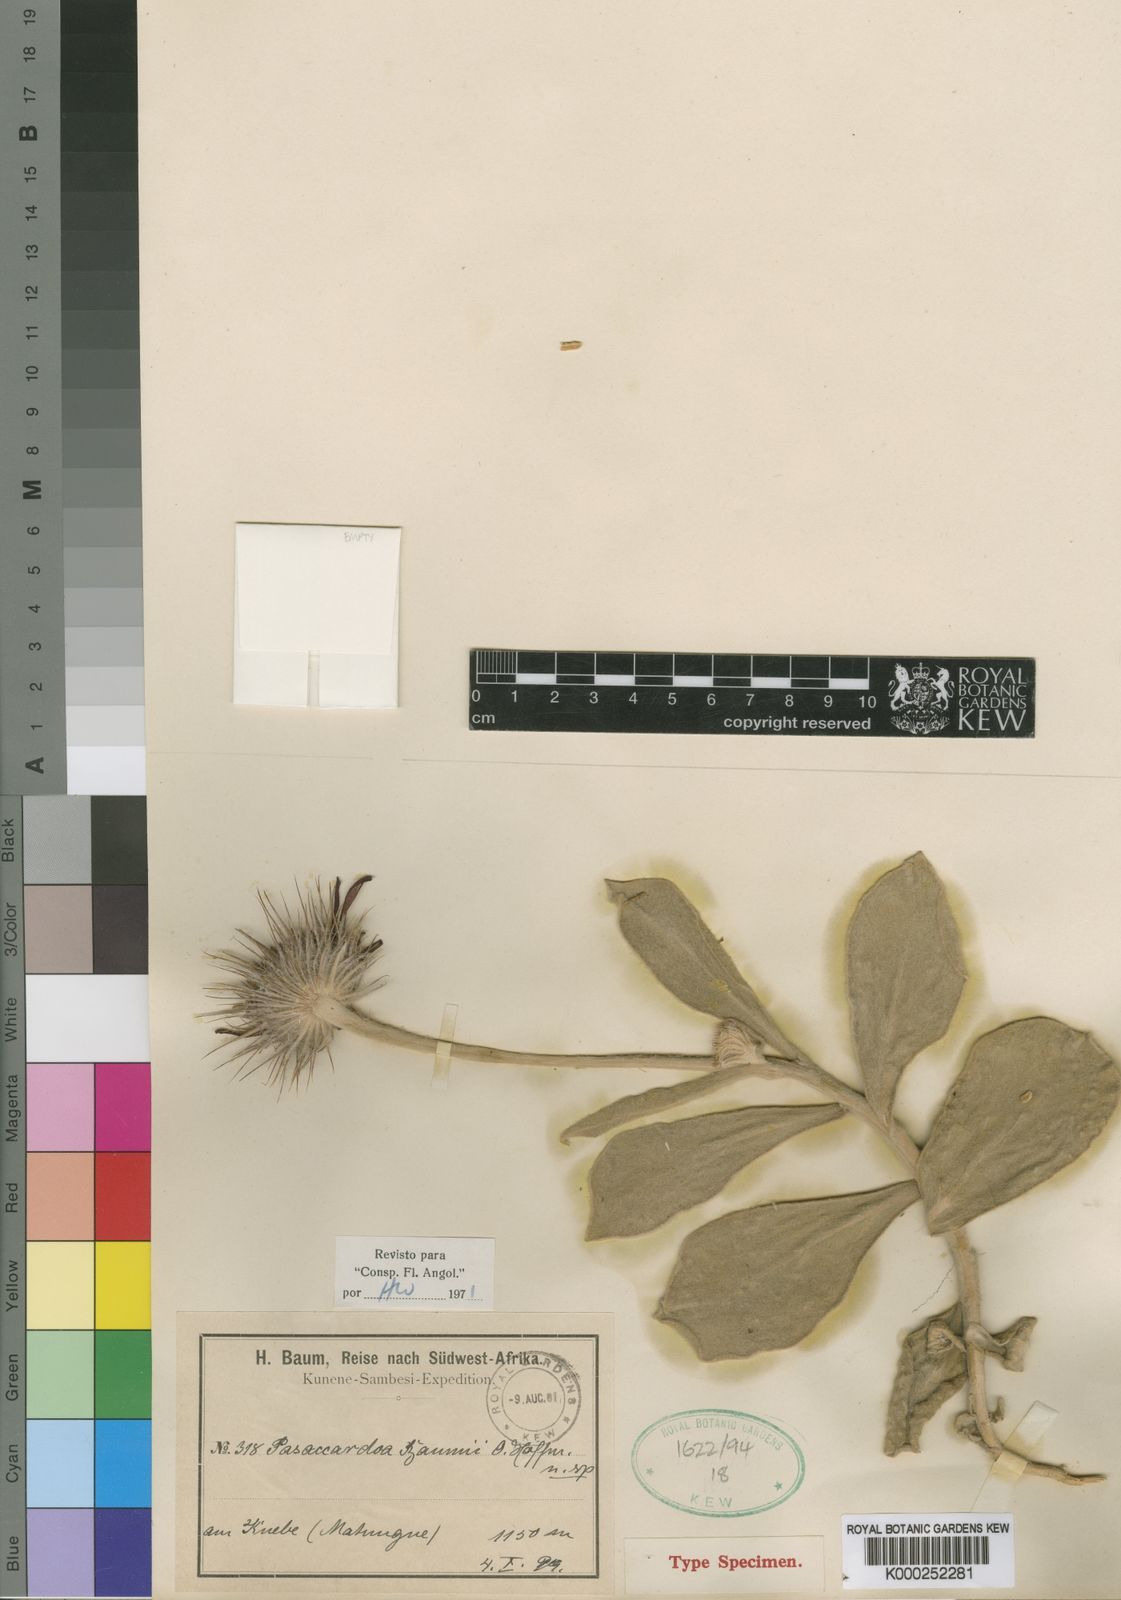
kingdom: Plantae
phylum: Tracheophyta
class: Magnoliopsida
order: Asterales
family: Asteraceae
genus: Pasaccardoa
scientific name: Pasaccardoa baumii
